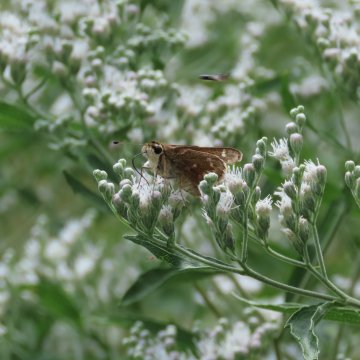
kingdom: Animalia
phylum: Arthropoda
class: Insecta
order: Lepidoptera
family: Hesperiidae
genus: Atalopedes
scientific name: Atalopedes campestris
